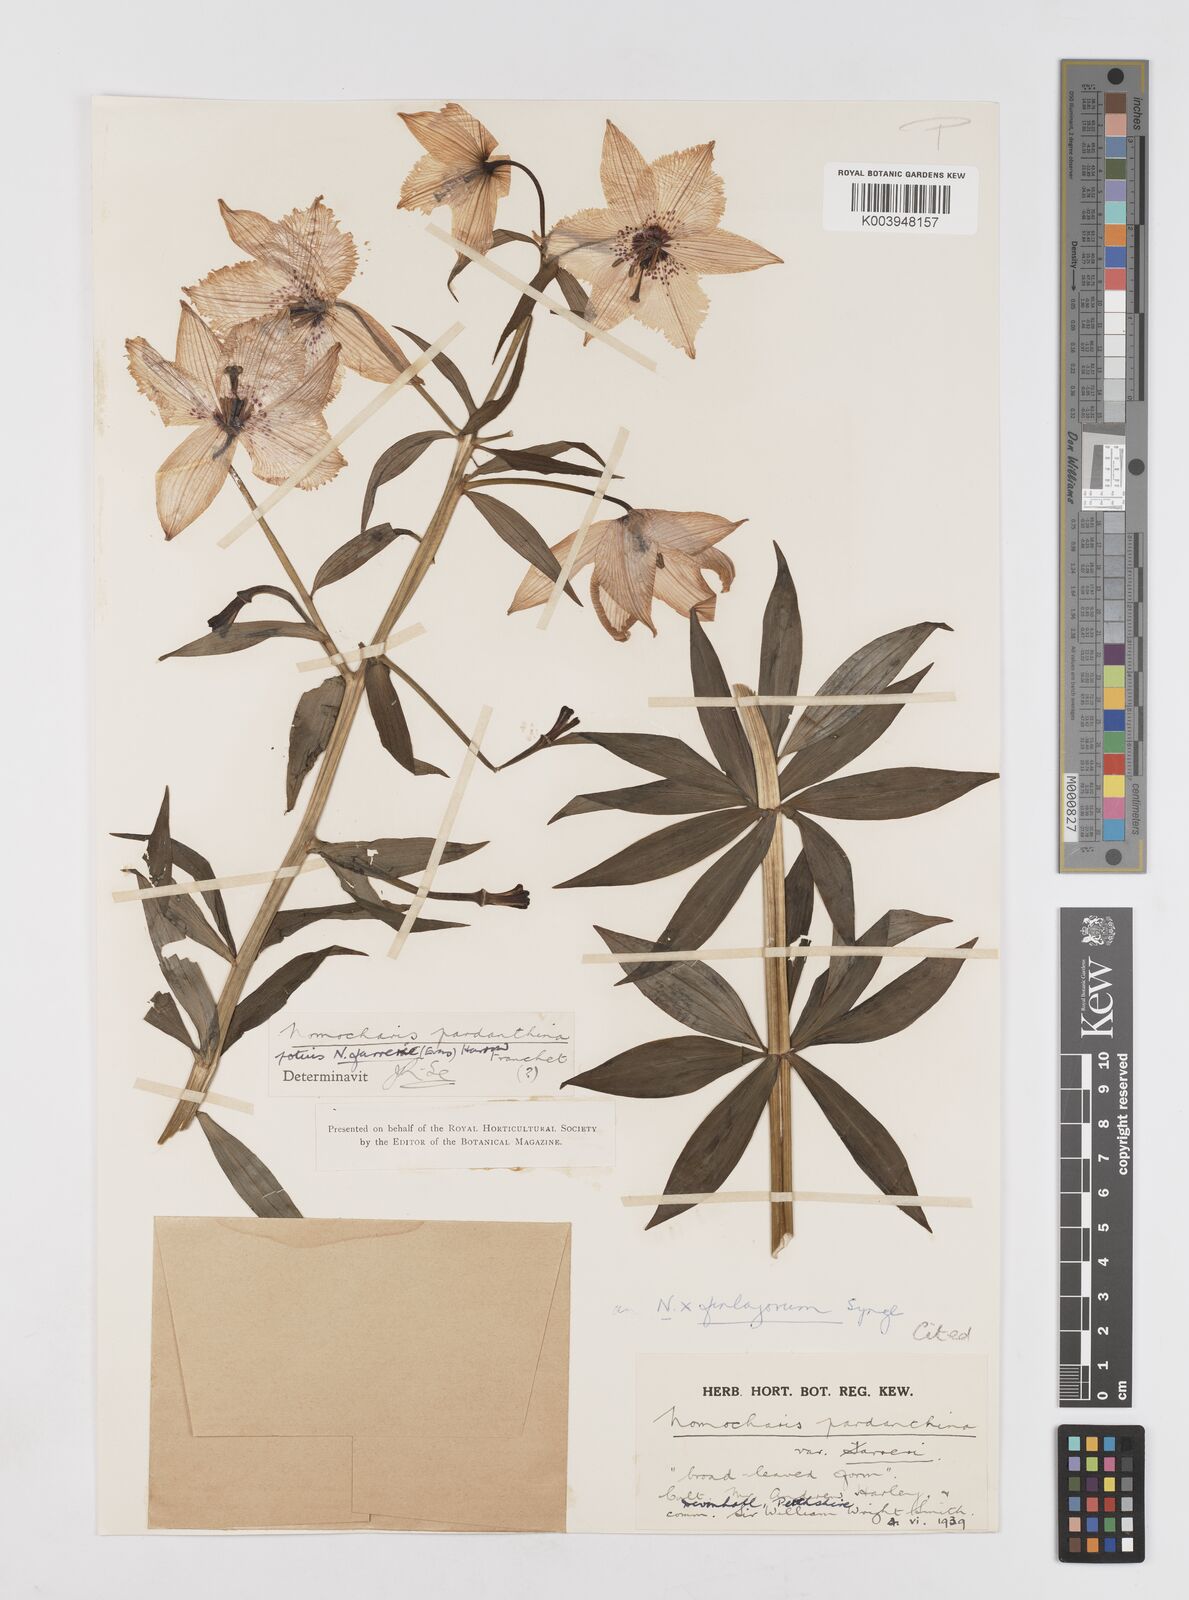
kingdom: Plantae
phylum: Tracheophyta
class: Liliopsida
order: Liliales
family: Liliaceae
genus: Lilium
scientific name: Lilium Nomocharis finlayorum
